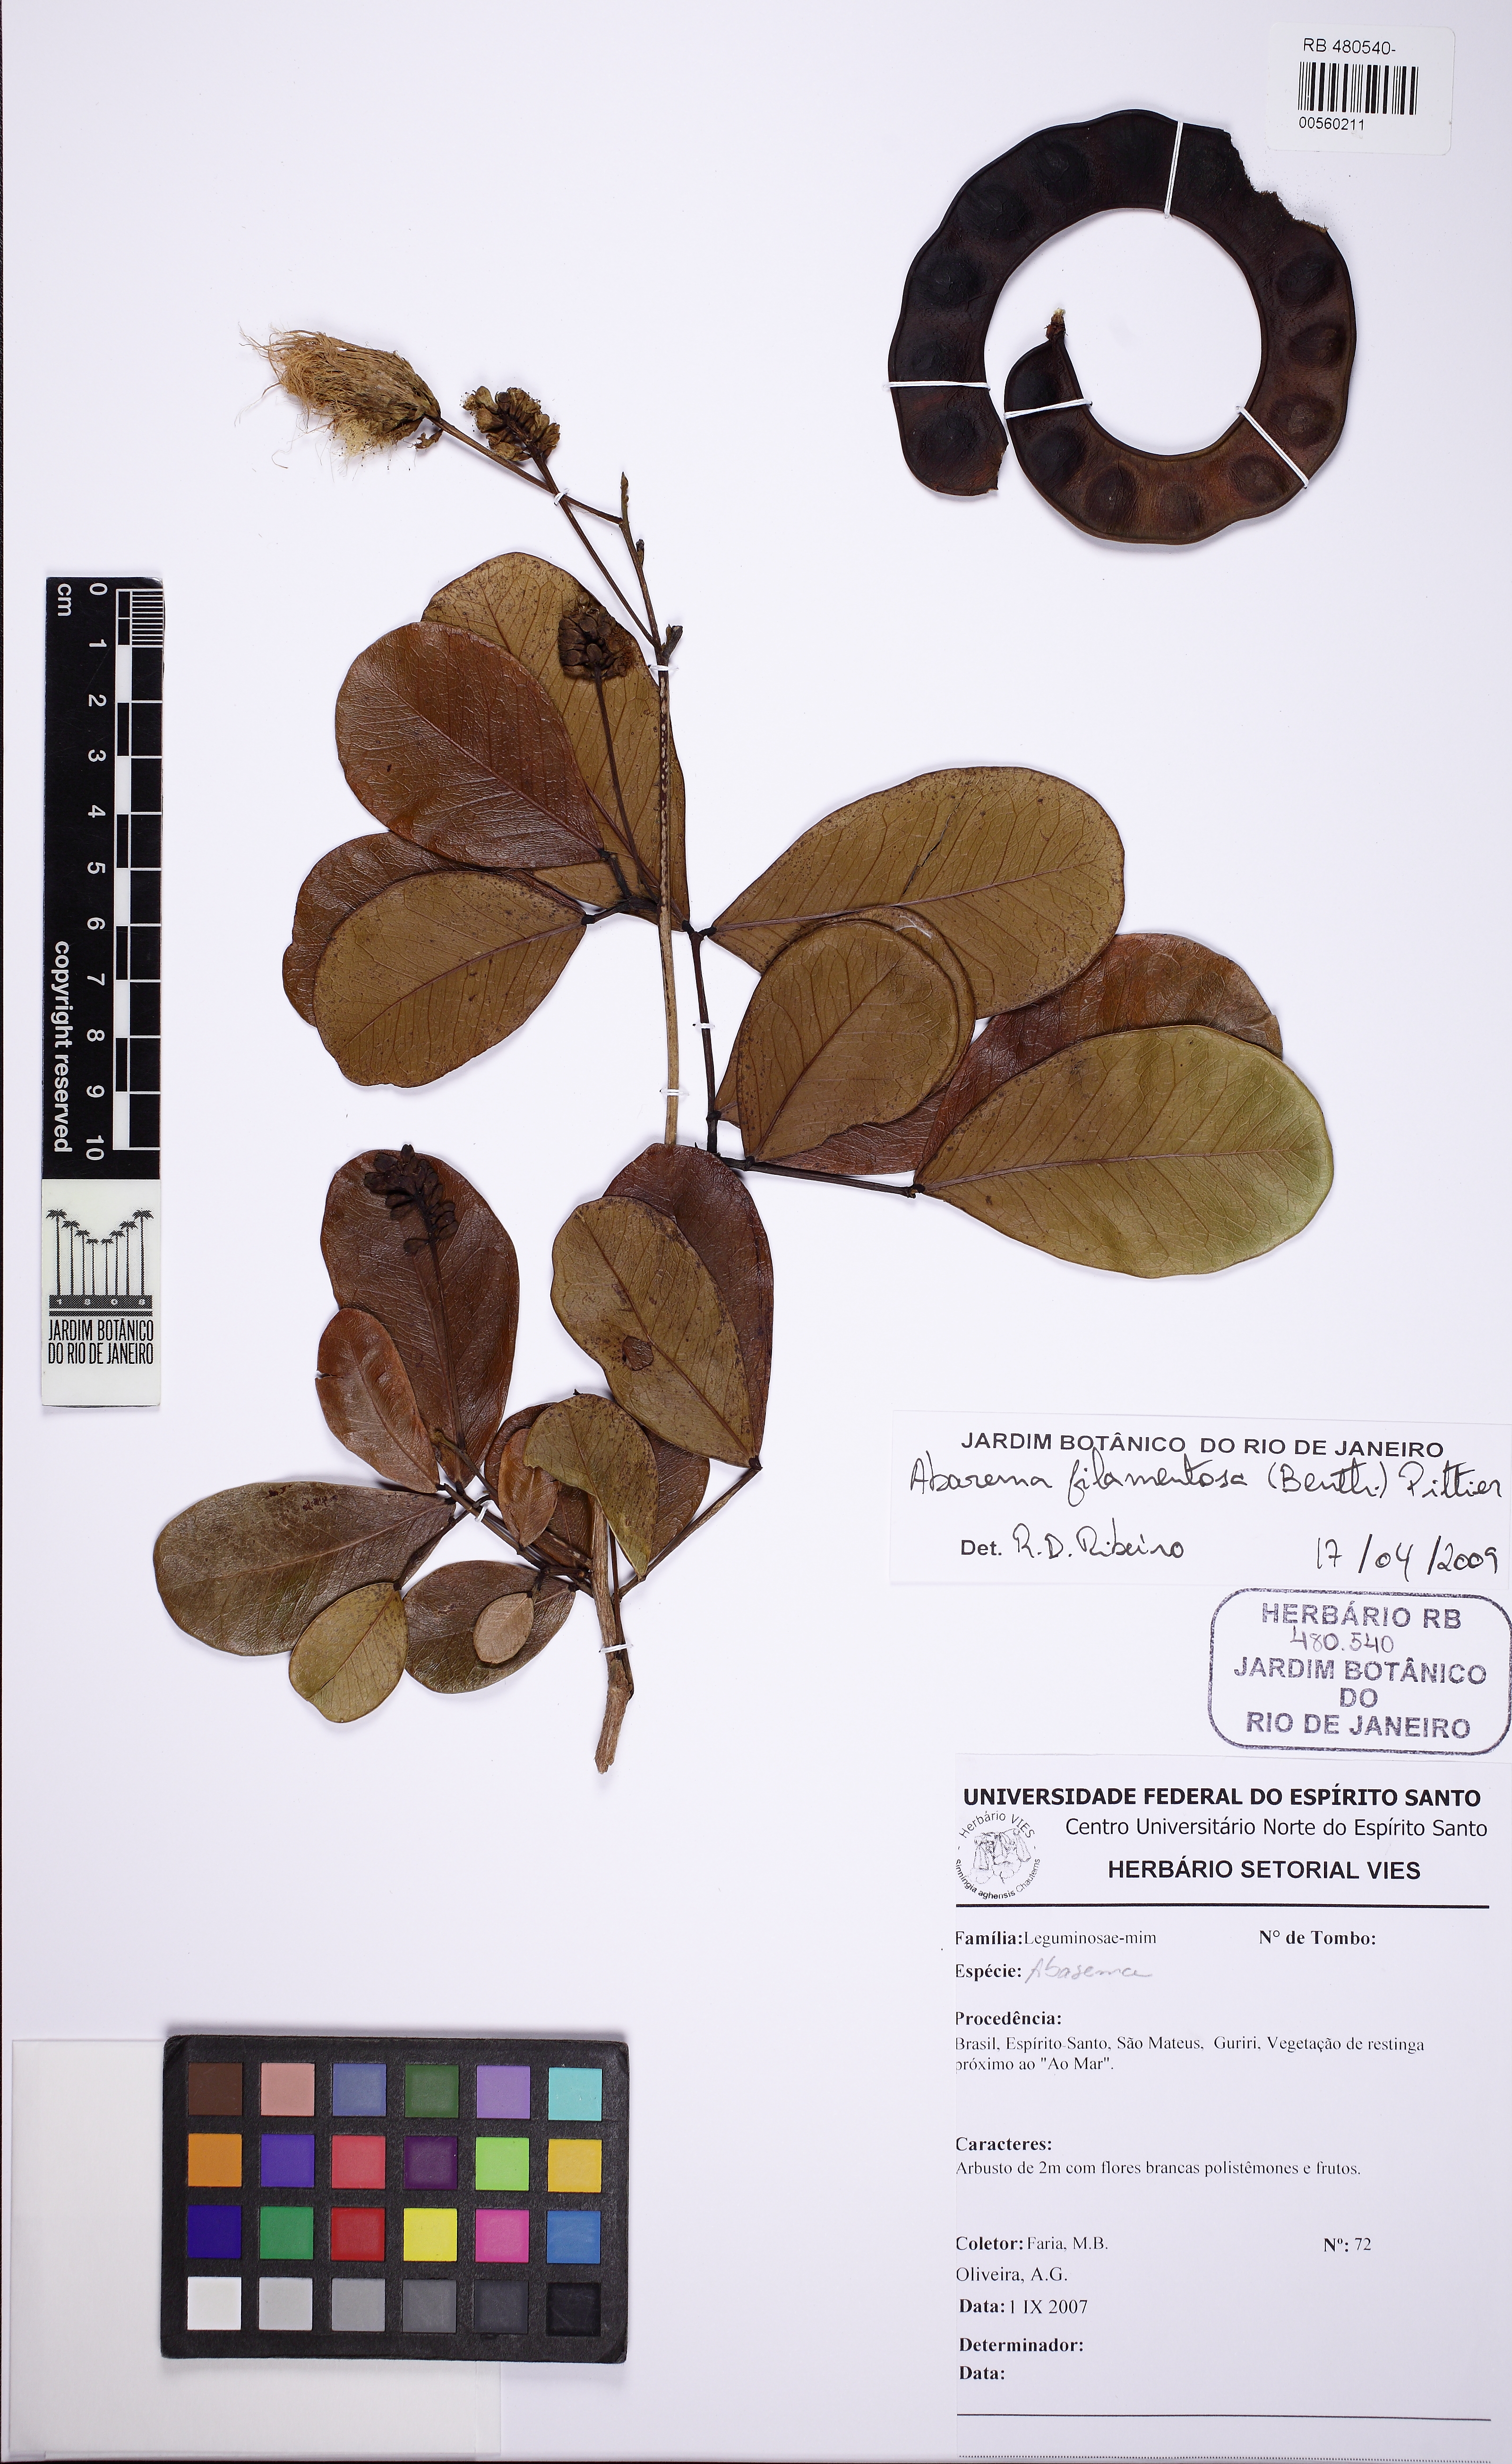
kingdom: Plantae
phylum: Tracheophyta
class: Magnoliopsida
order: Fabales
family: Fabaceae
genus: Jupunba
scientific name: Jupunba filamentosa
